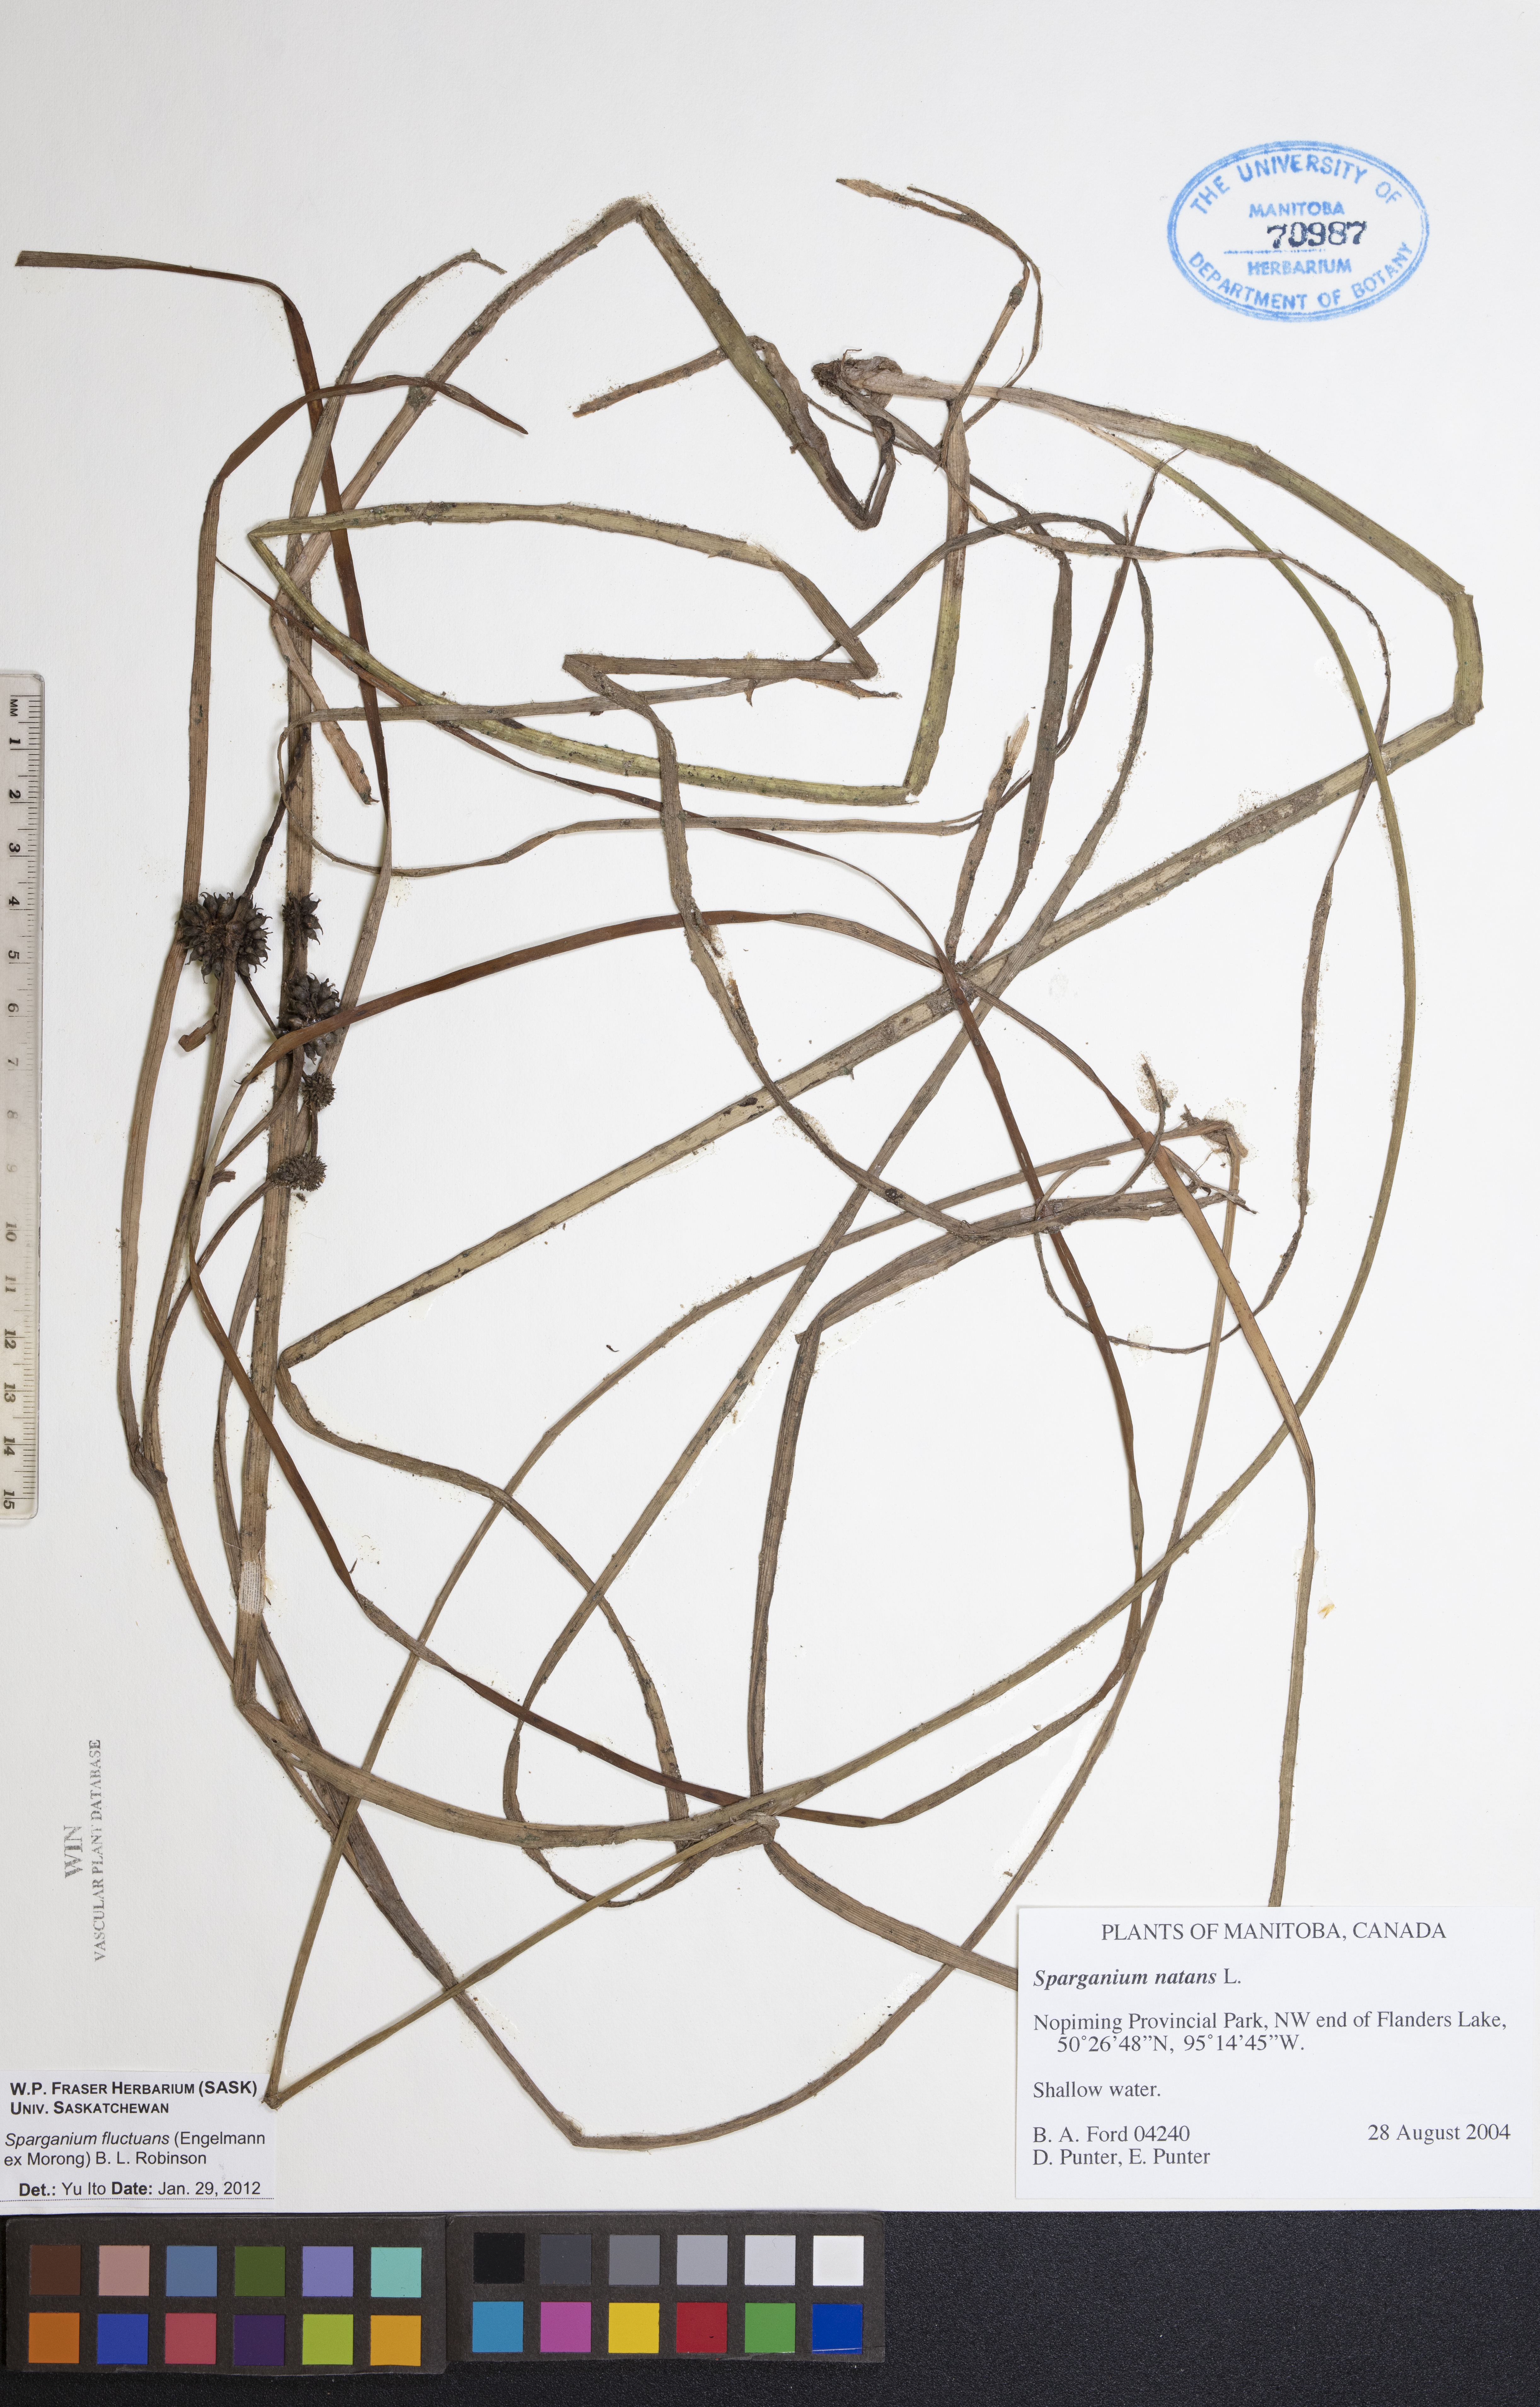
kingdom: Plantae
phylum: Tracheophyta
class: Liliopsida
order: Poales
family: Typhaceae
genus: Sparganium
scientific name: Sparganium fluctuans
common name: Floating burreed
